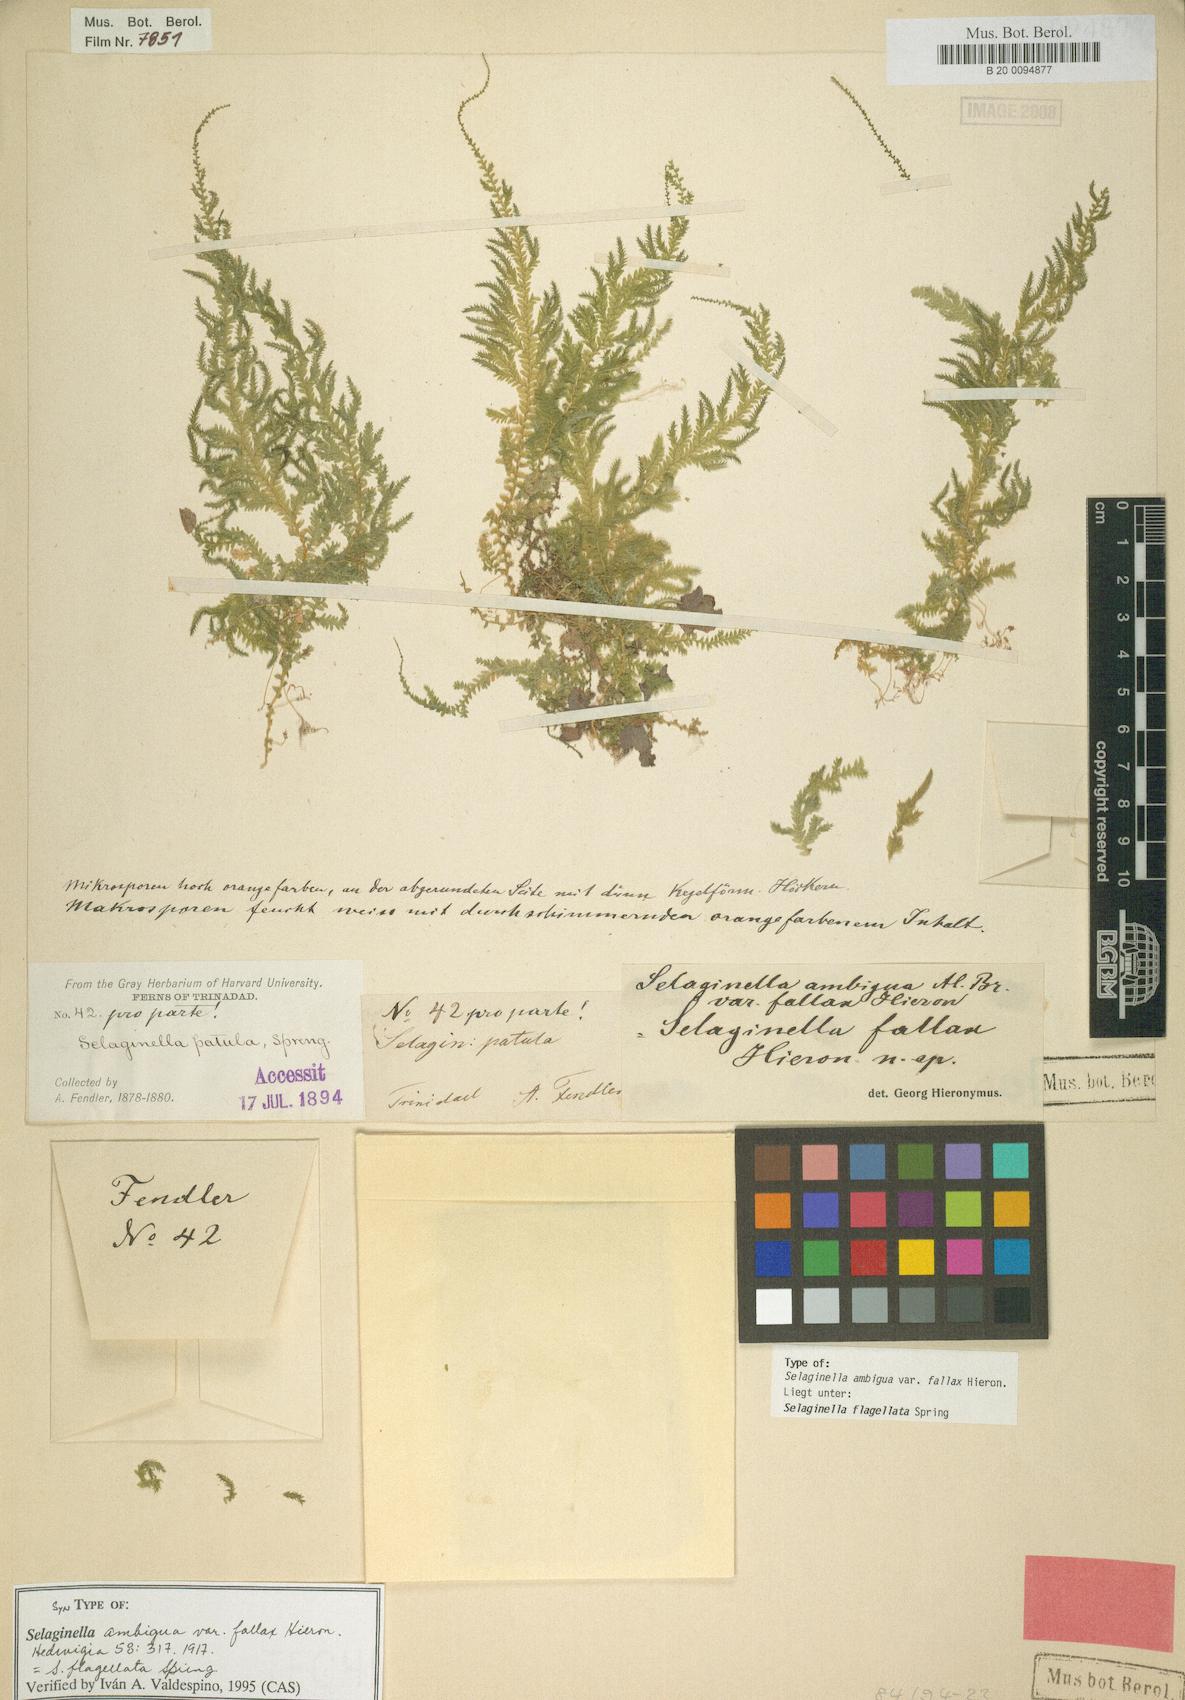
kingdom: Plantae
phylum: Tracheophyta
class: Lycopodiopsida
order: Selaginellales
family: Selaginellaceae
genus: Selaginella
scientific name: Selaginella flagellata
